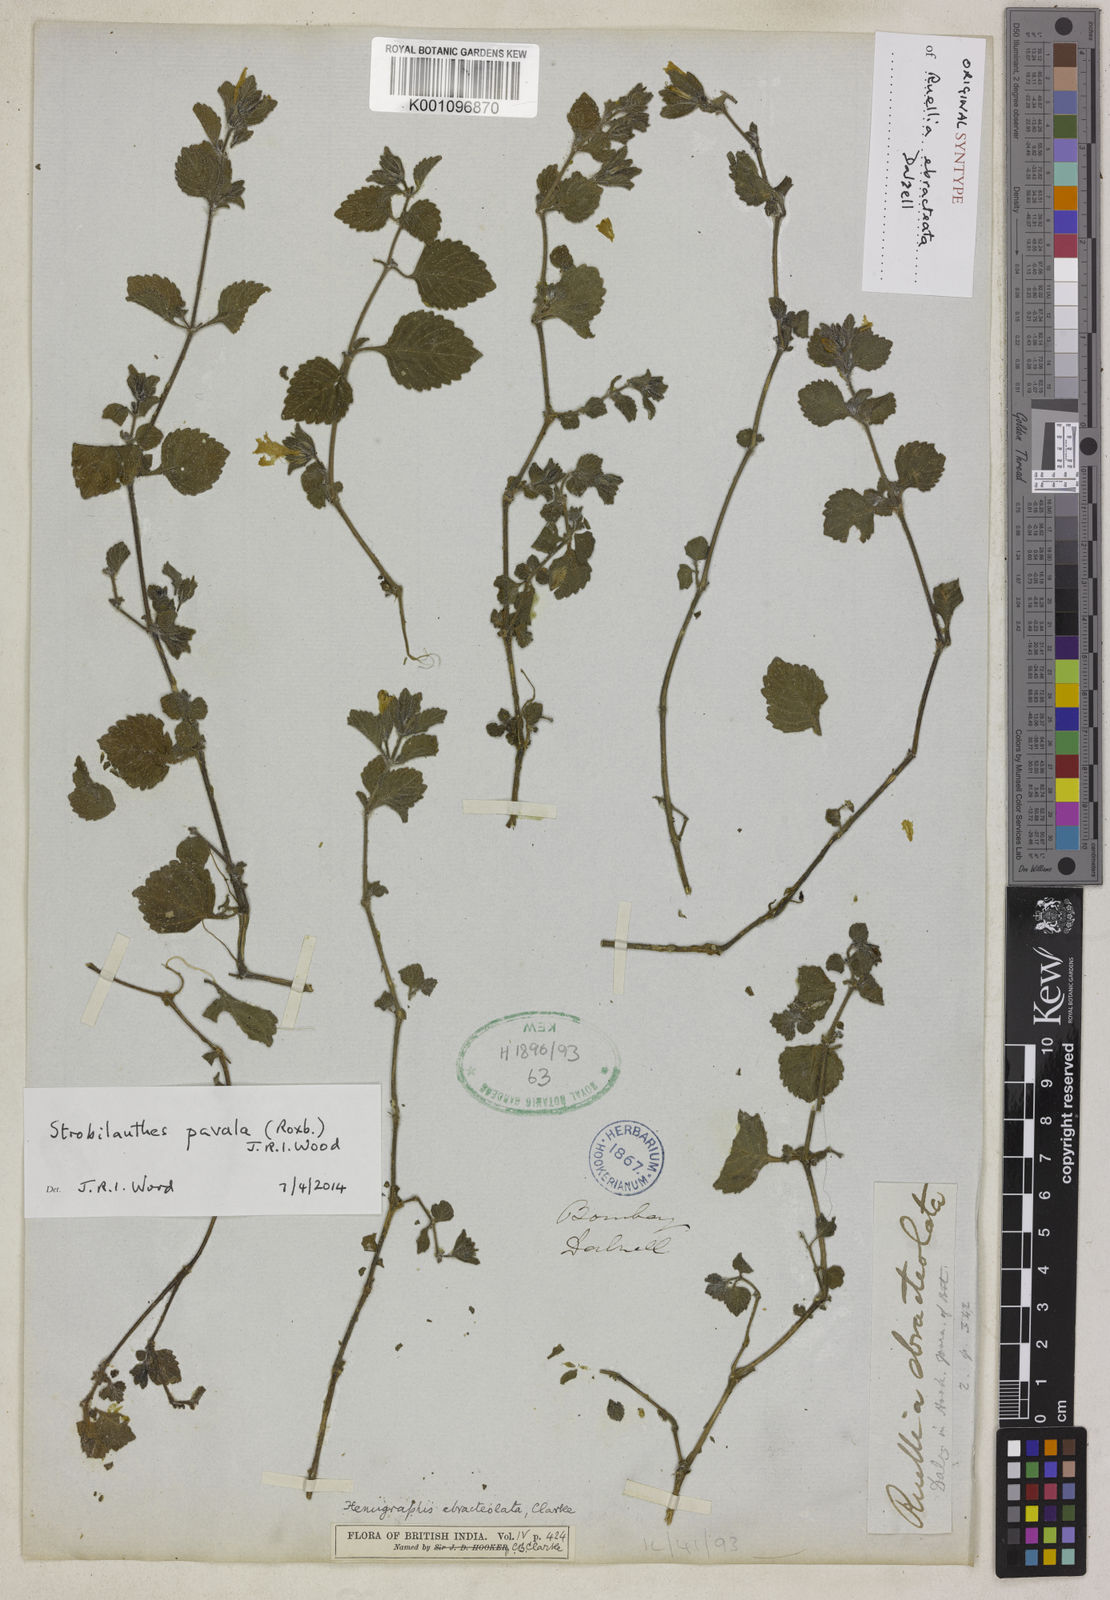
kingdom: Plantae
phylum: Tracheophyta
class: Magnoliopsida
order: Lamiales
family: Acanthaceae
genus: Strobilanthes
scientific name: Strobilanthes
